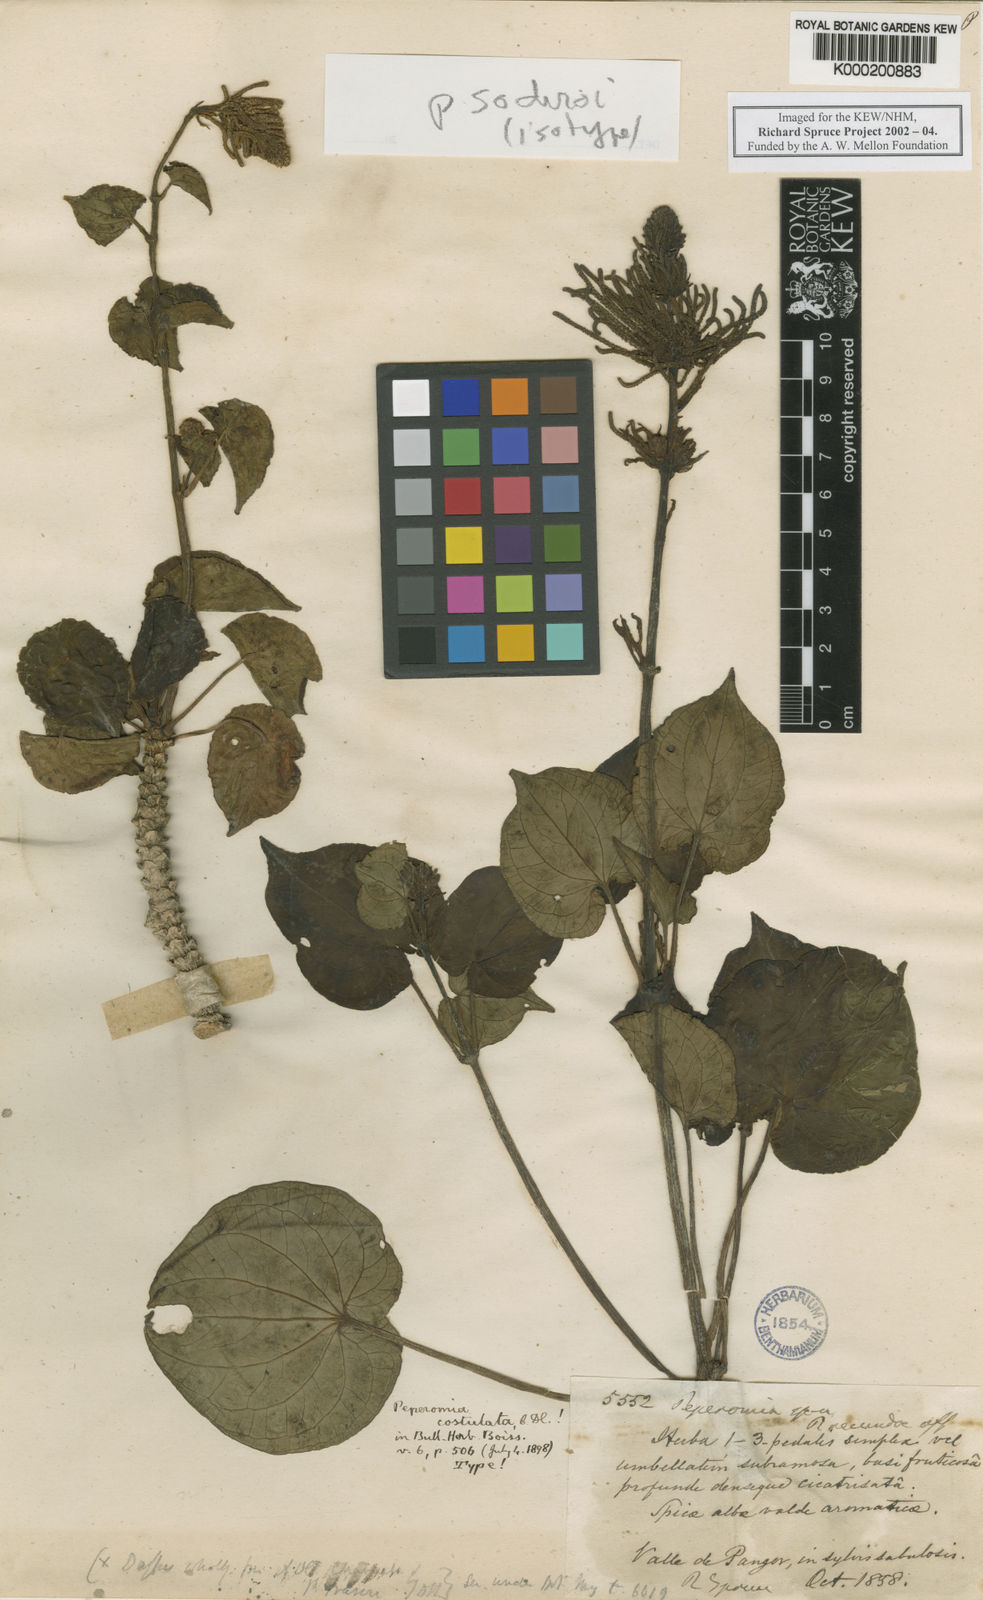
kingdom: Plantae
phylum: Tracheophyta
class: Magnoliopsida
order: Piperales
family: Piperaceae
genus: Peperomia
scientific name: Peperomia sodiroi
